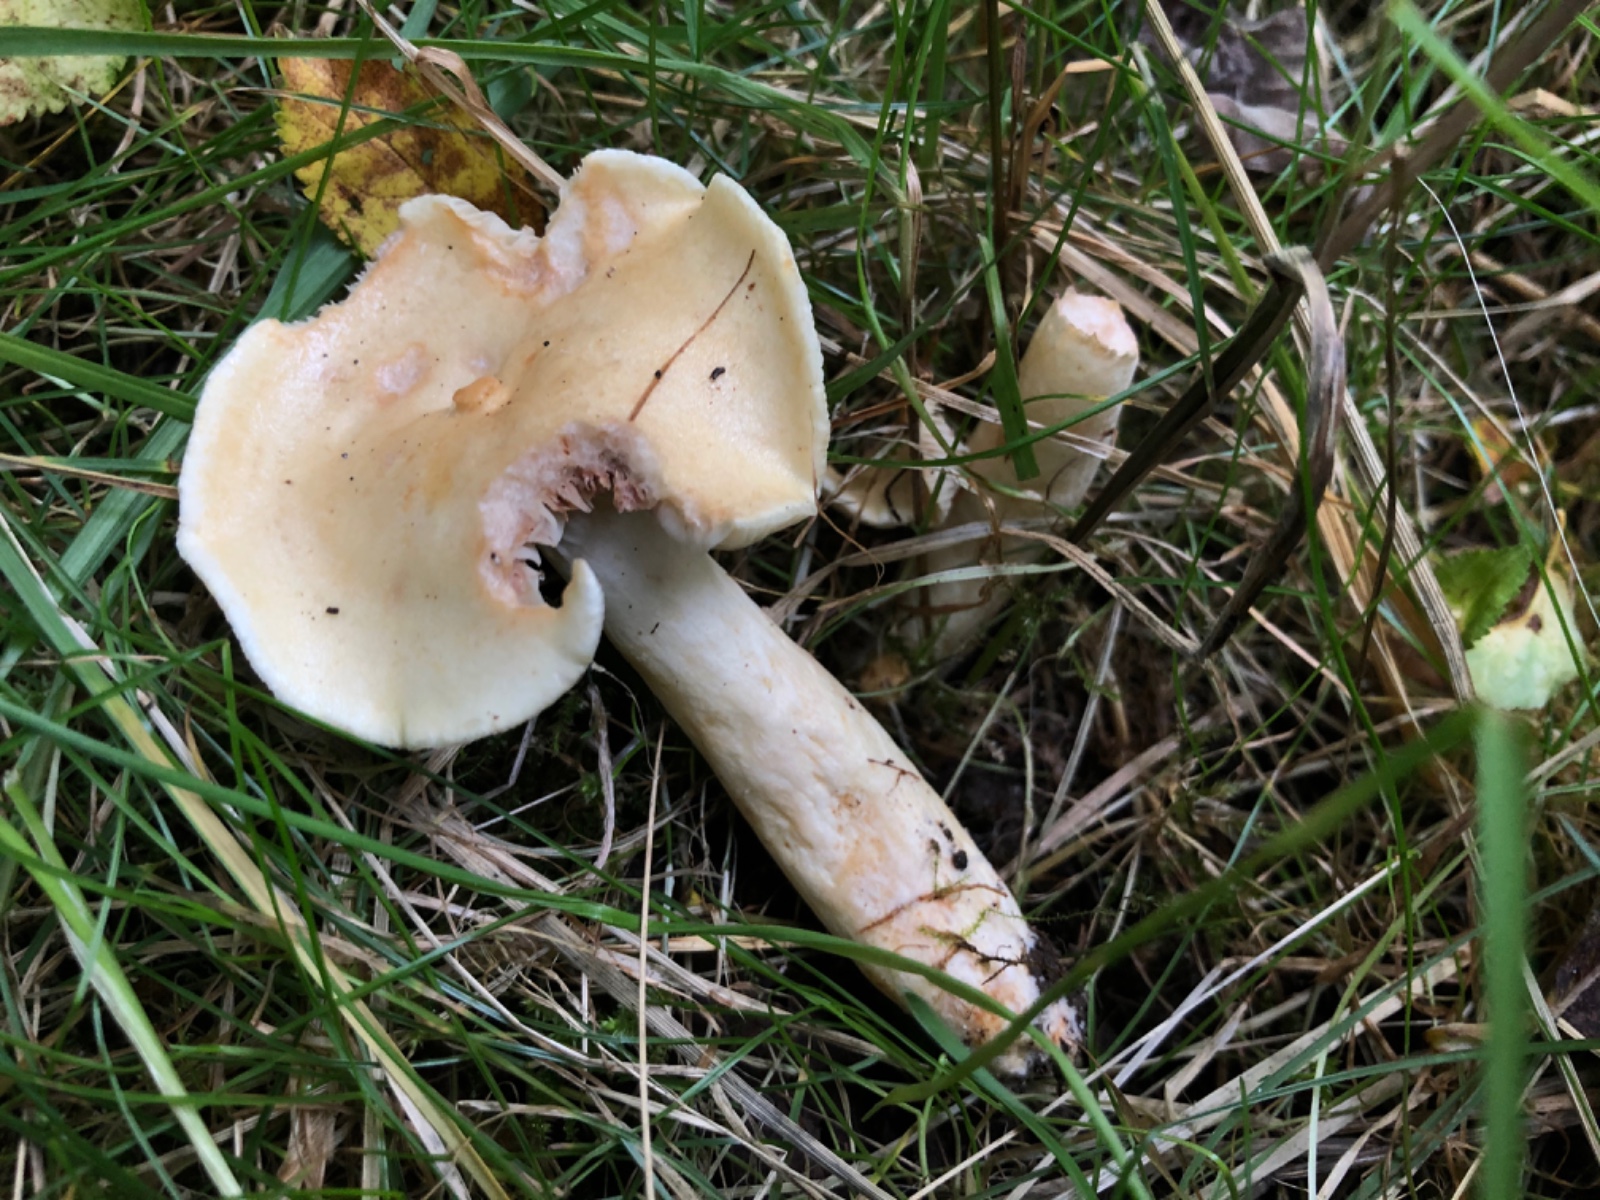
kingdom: Fungi
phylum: Basidiomycota
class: Agaricomycetes
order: Russulales
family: Russulaceae
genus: Lactarius
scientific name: Lactarius aspideus
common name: pile-mælkehat
